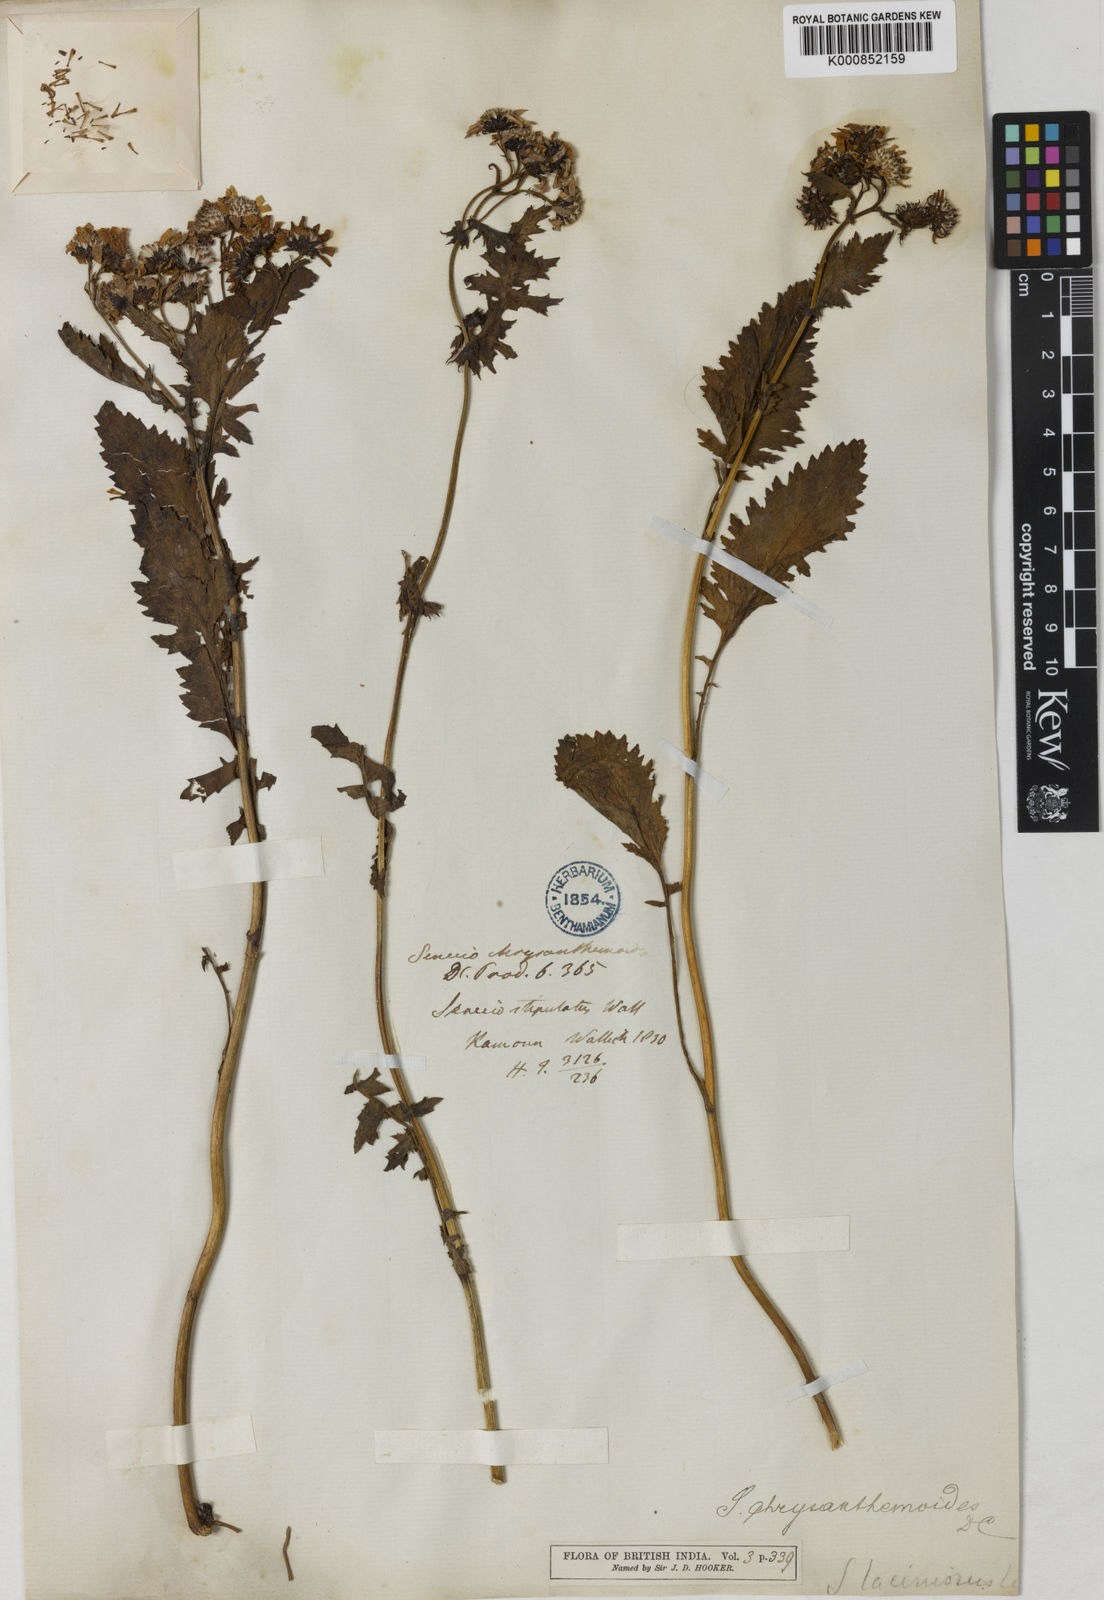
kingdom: Plantae
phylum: Tracheophyta
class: Magnoliopsida
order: Asterales
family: Asteraceae
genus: Jacobaea
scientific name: Jacobaea analoga
